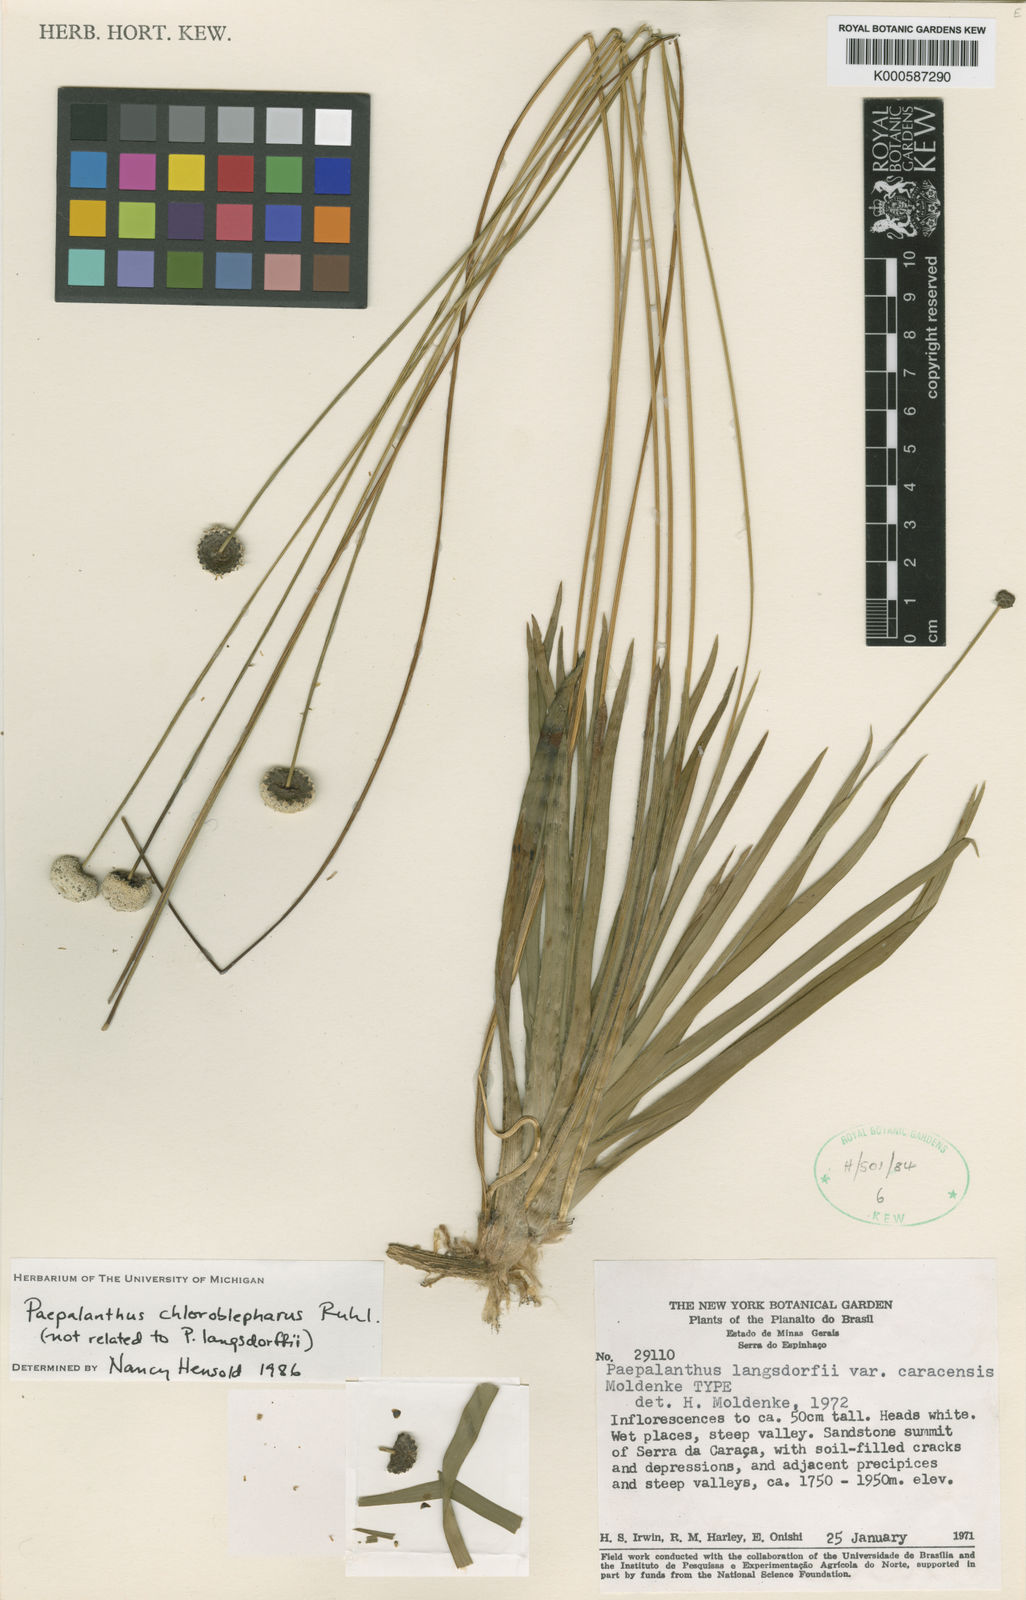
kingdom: Plantae
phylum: Tracheophyta
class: Liliopsida
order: Poales
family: Eriocaulaceae
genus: Paepalanthus
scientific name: Paepalanthus chloroblepharus
